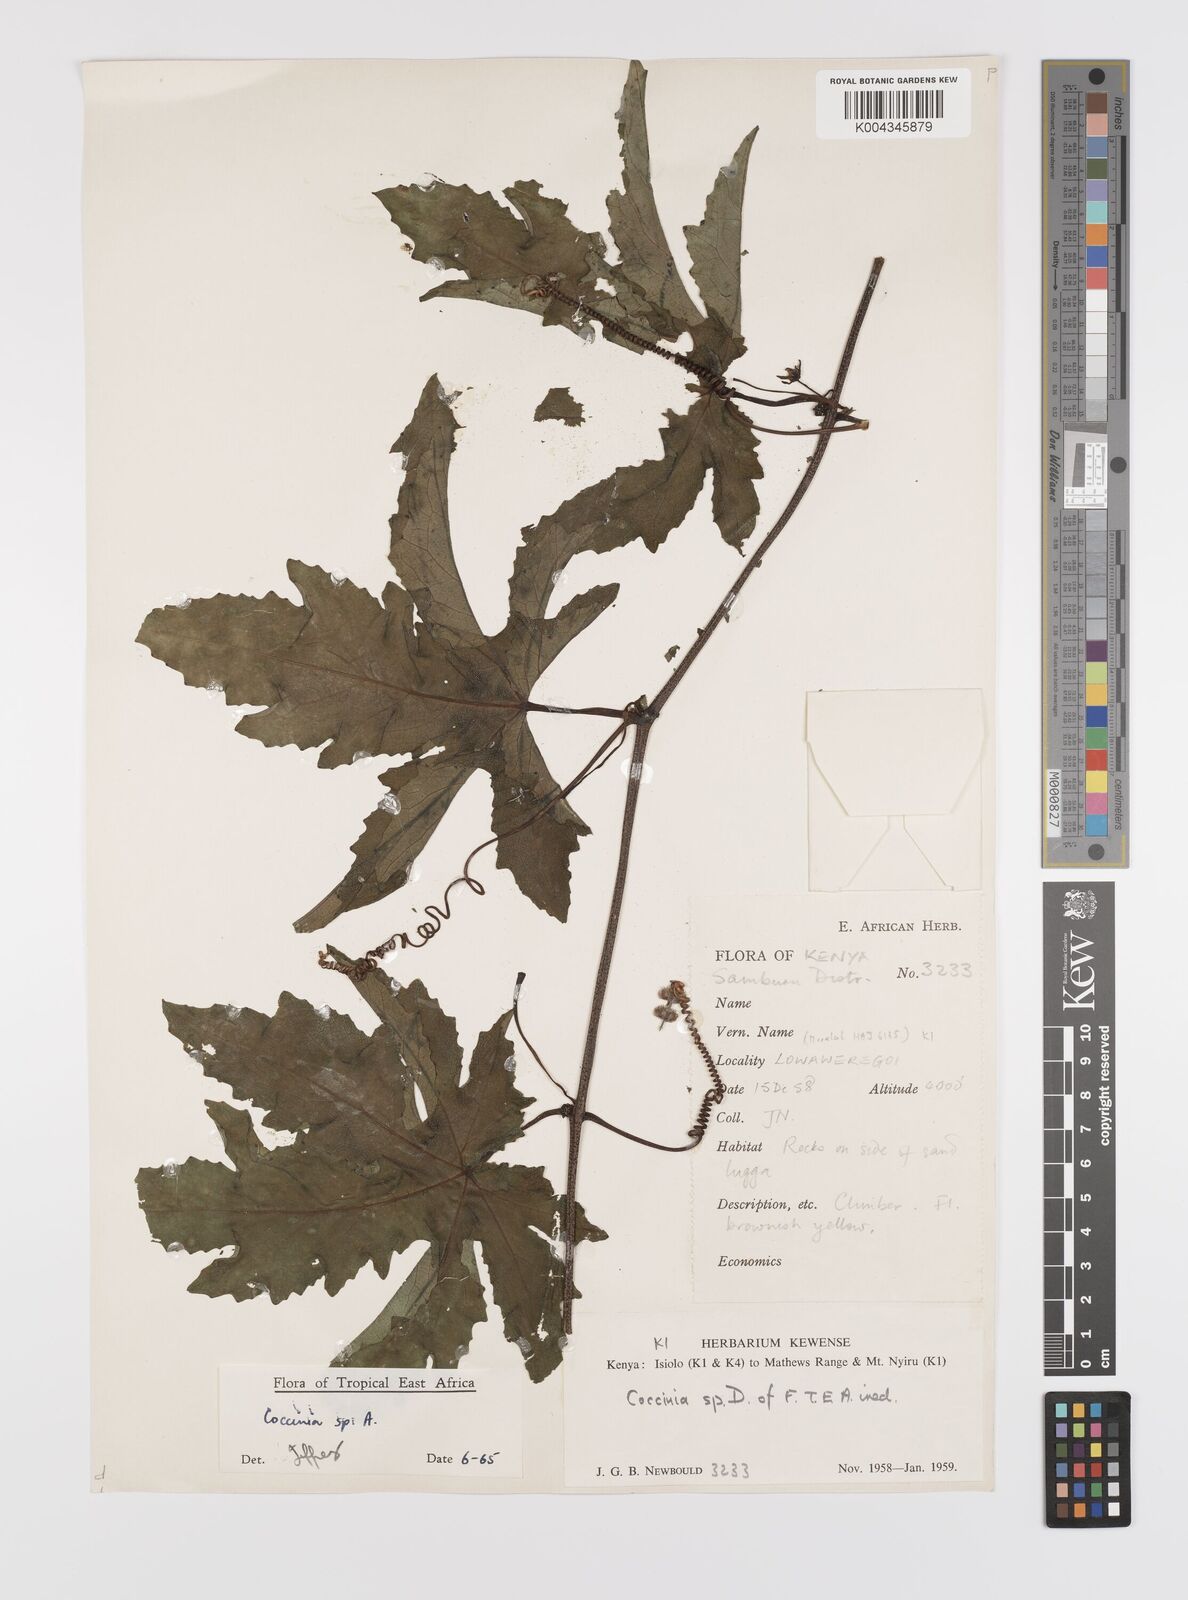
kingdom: Plantae
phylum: Tracheophyta
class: Magnoliopsida
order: Cucurbitales
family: Cucurbitaceae
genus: Coccinia
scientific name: Coccinia
